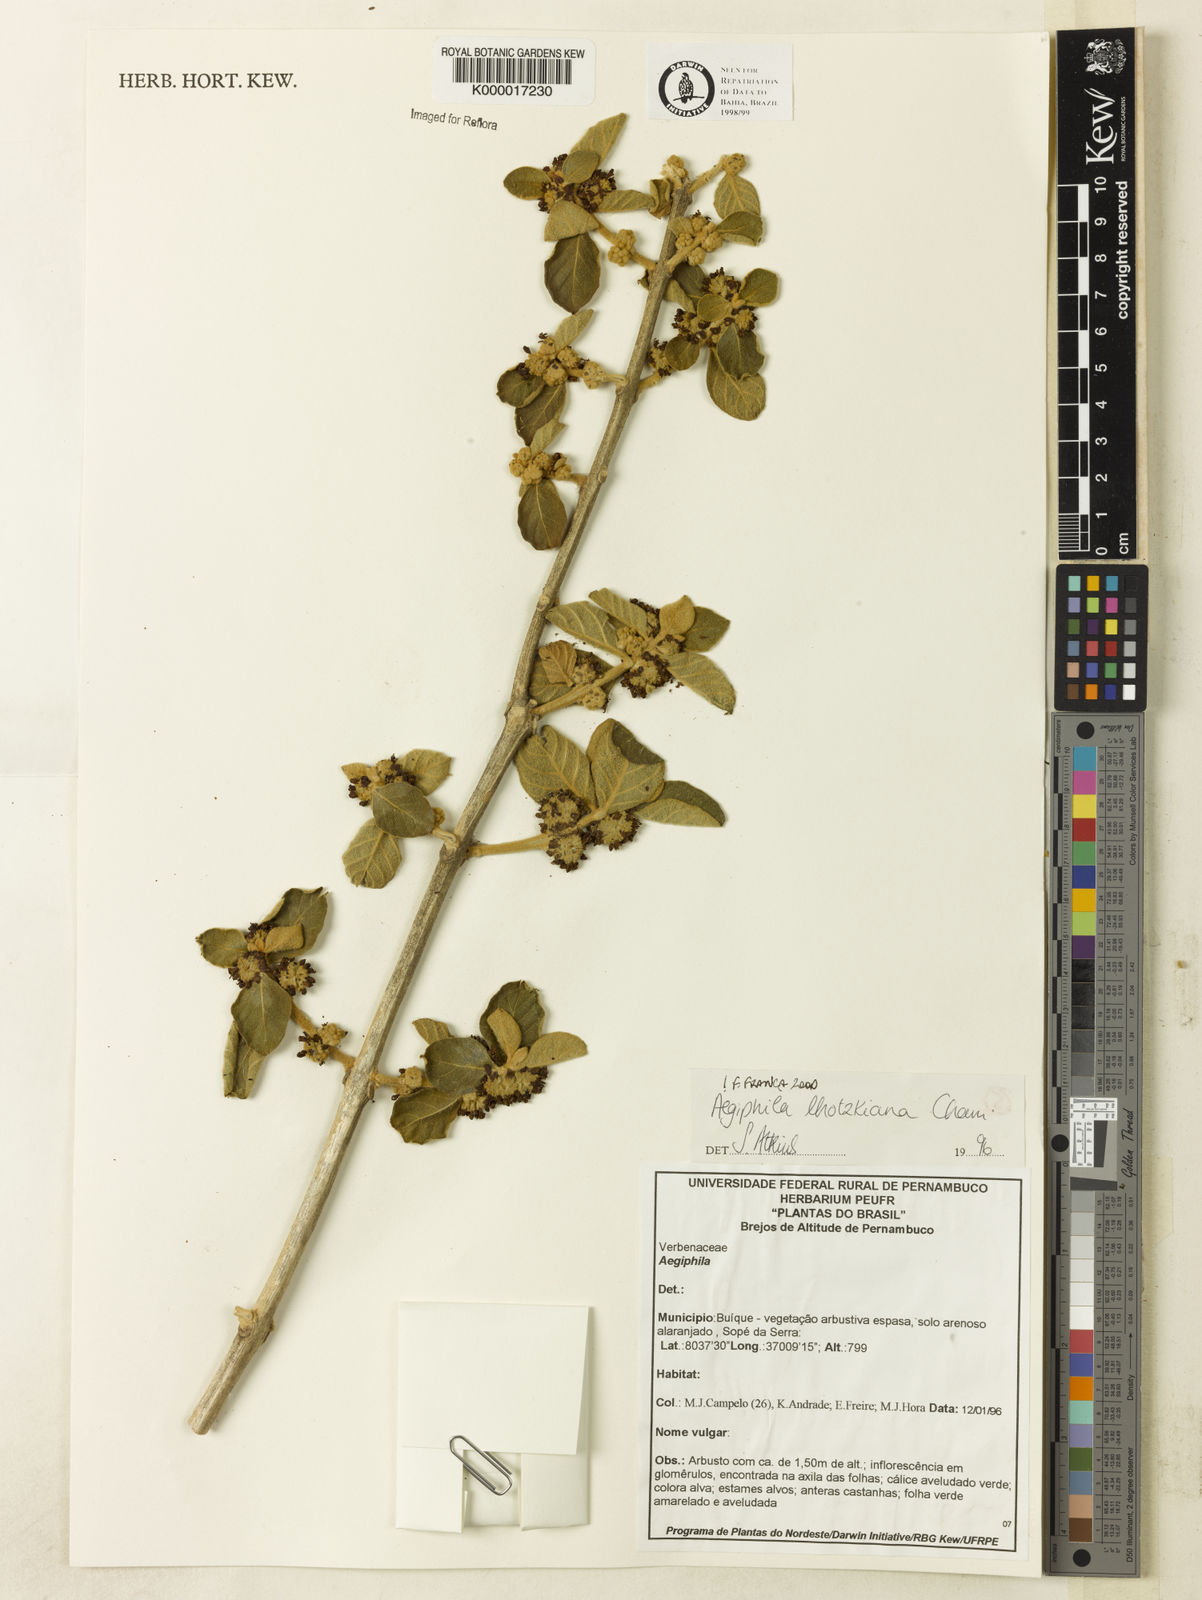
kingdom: Plantae
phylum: Tracheophyta
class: Magnoliopsida
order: Lamiales
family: Lamiaceae
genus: Aegiphila
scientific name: Aegiphila verticillata
